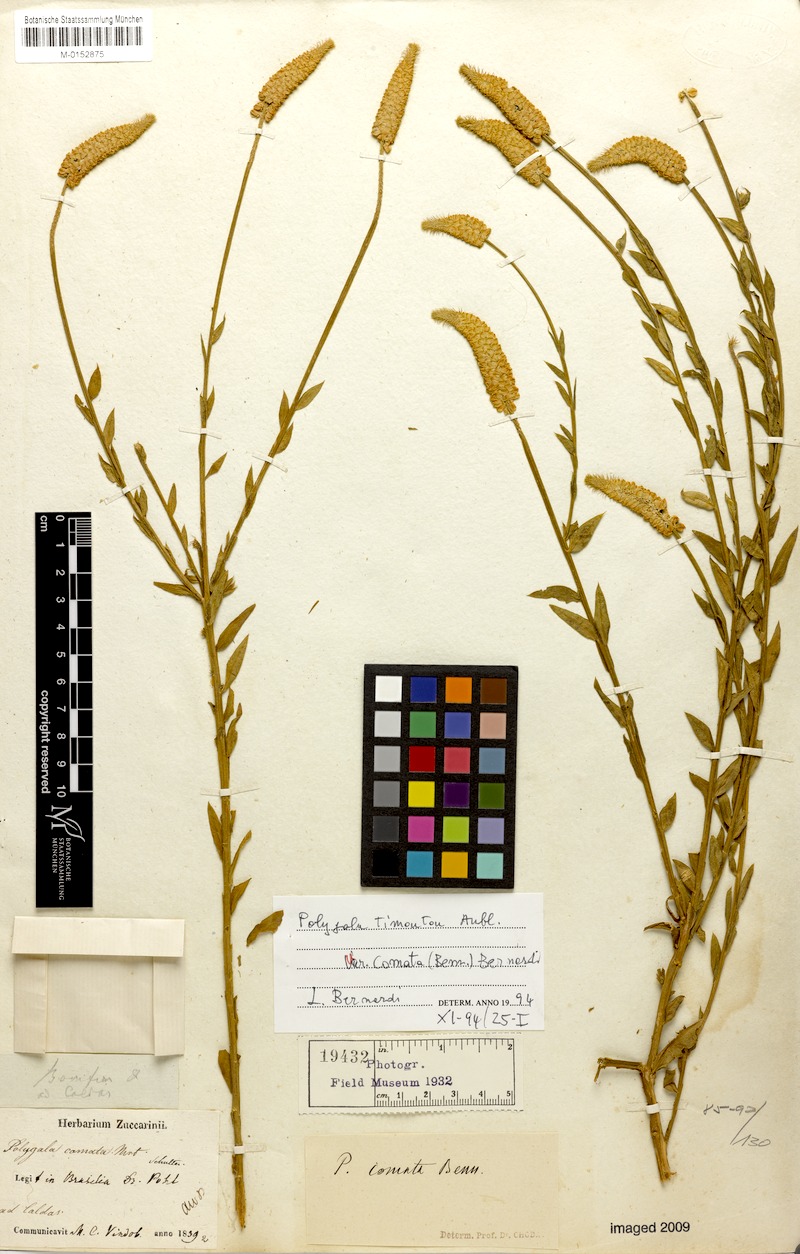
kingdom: Plantae
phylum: Tracheophyta
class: Magnoliopsida
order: Fabales
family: Polygalaceae
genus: Polygala
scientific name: Polygala cuspidata
